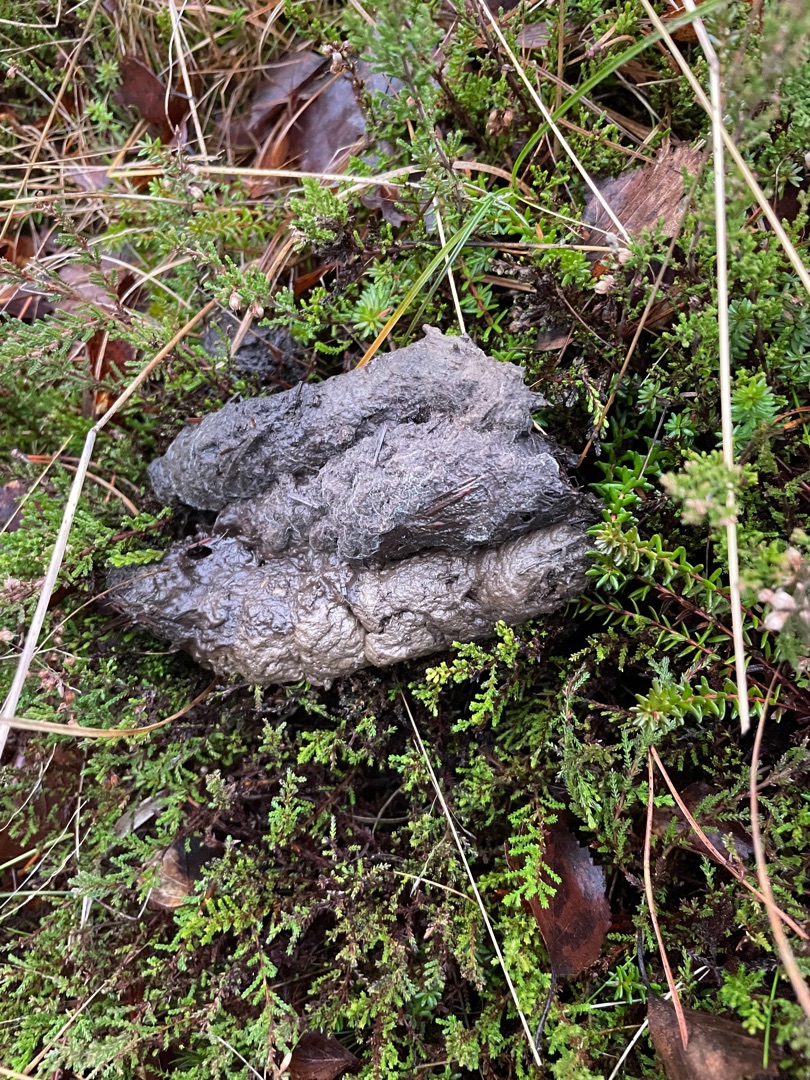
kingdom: Animalia
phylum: Chordata
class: Mammalia
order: Carnivora
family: Canidae
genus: Canis
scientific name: Canis lupus
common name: Ulv
